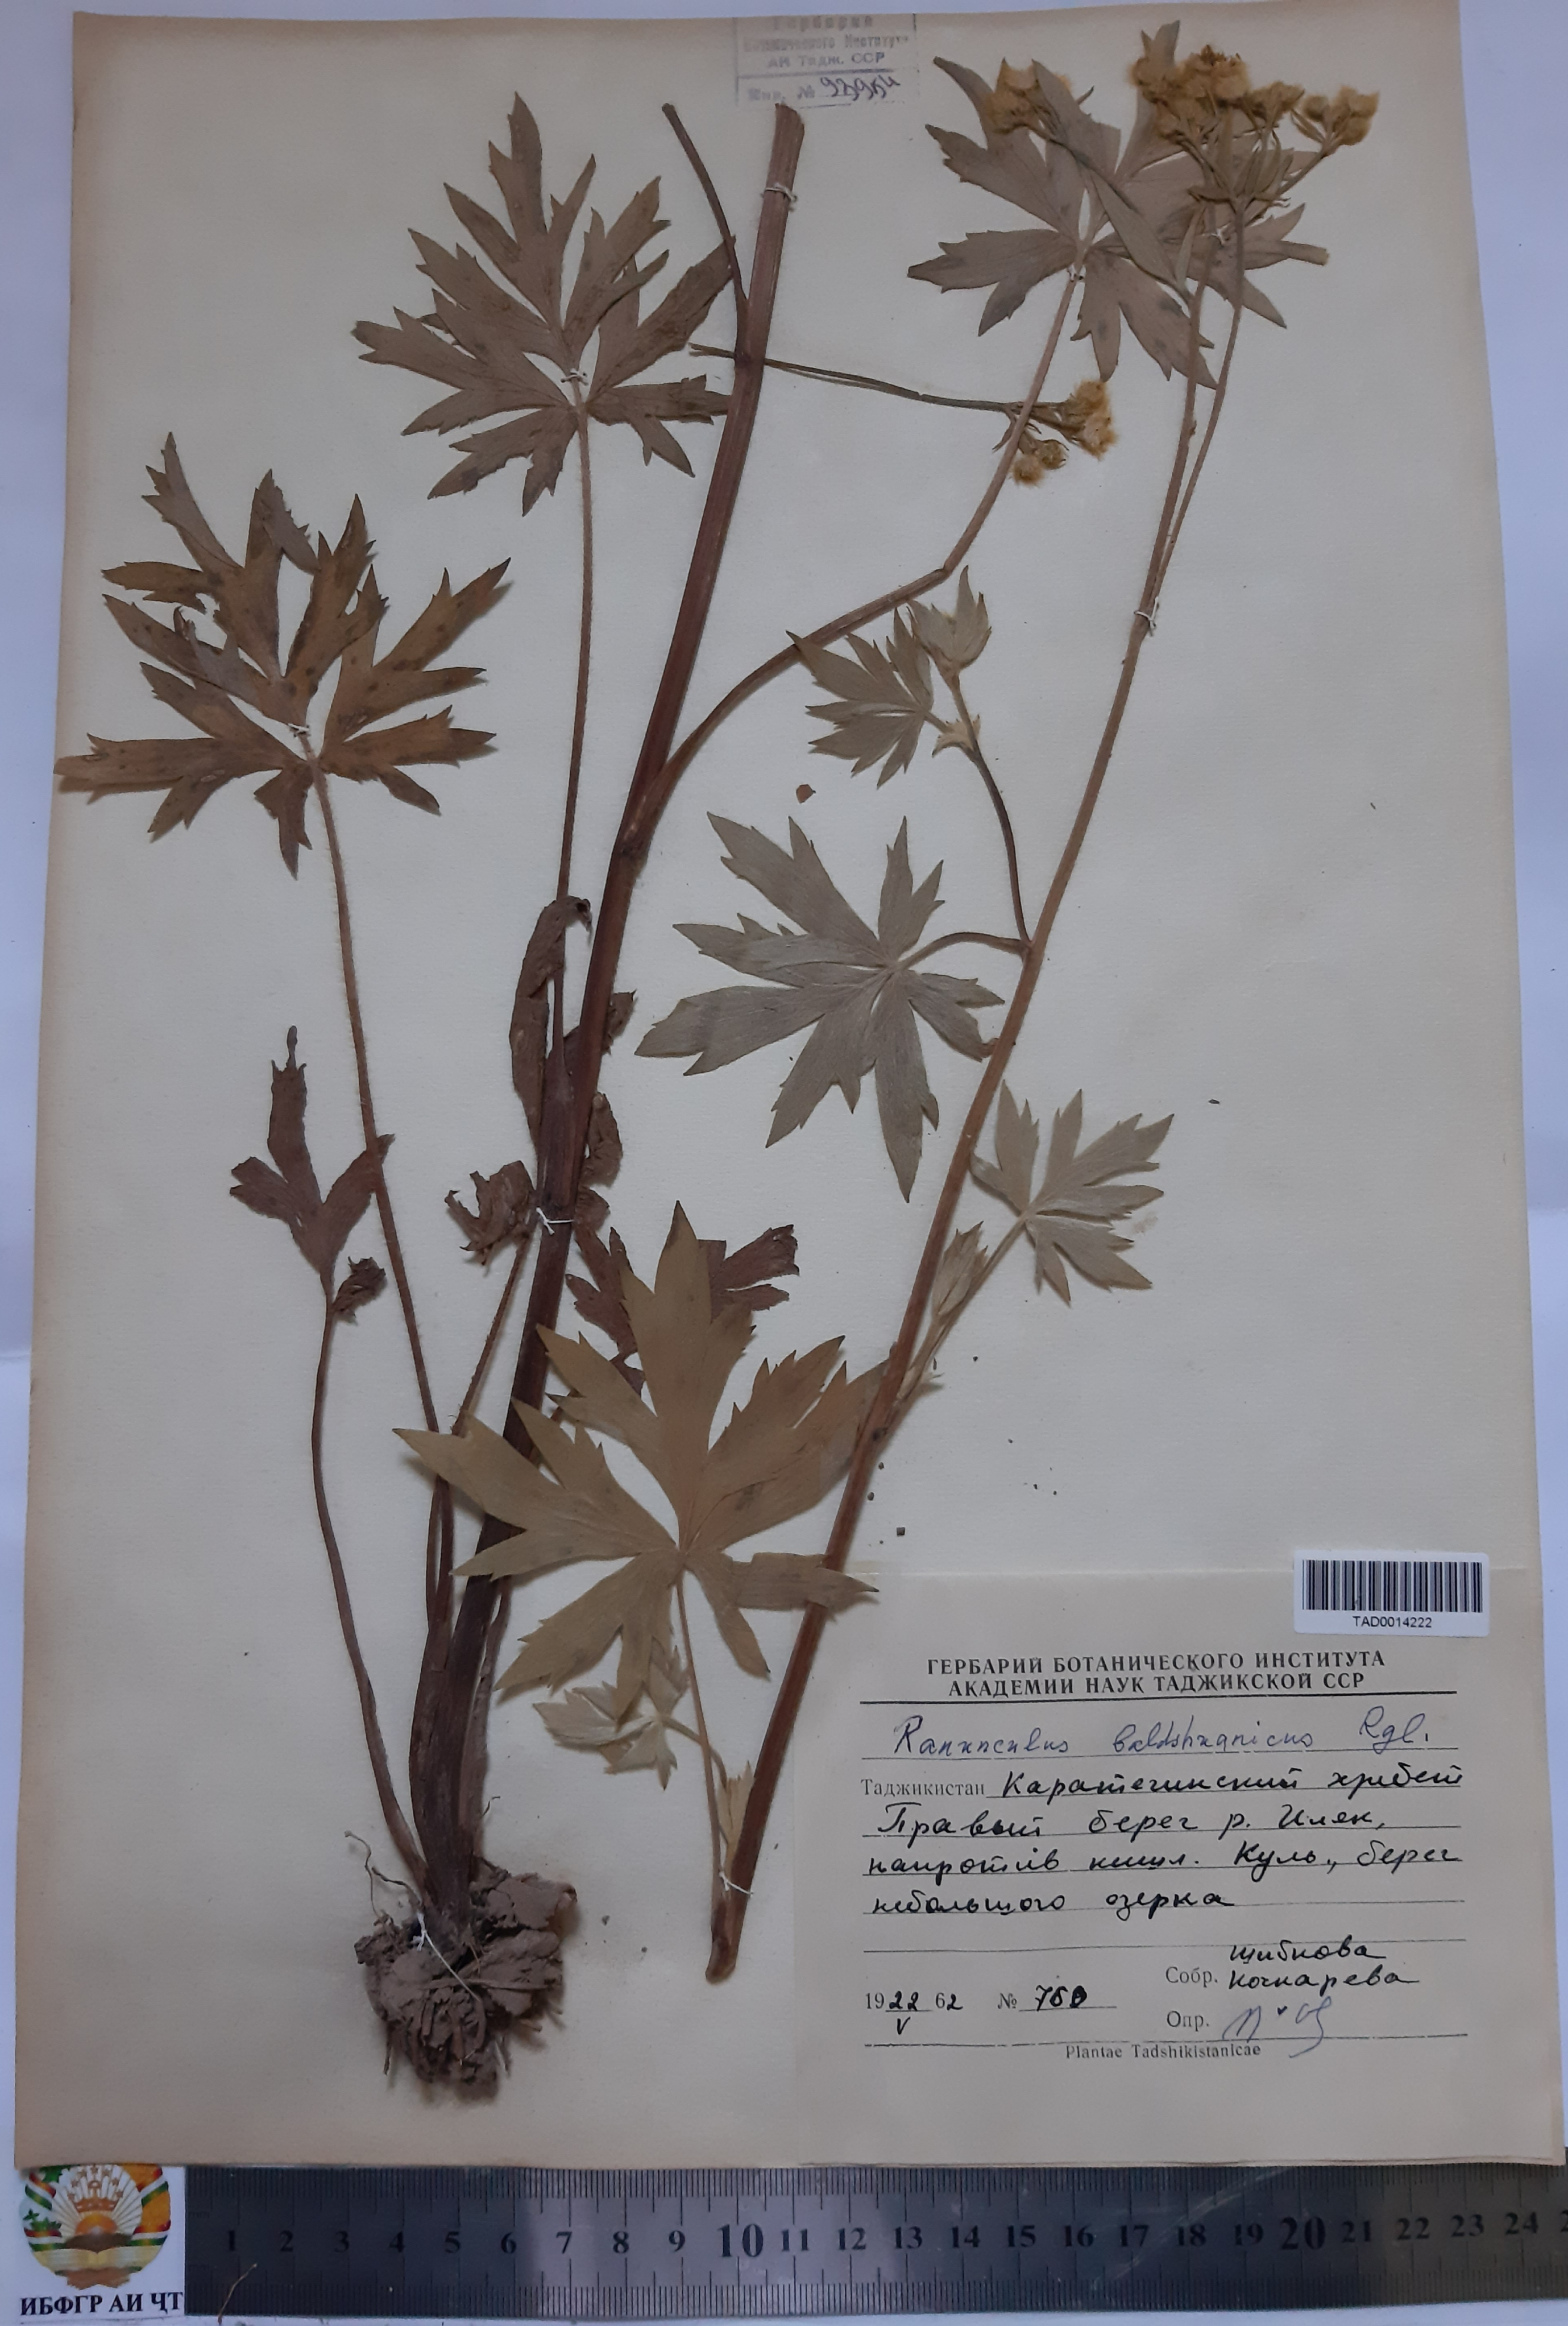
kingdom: Plantae
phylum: Tracheophyta
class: Magnoliopsida
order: Ranunculales
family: Ranunculaceae
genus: Ranunculus
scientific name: Ranunculus baldshuanicus
